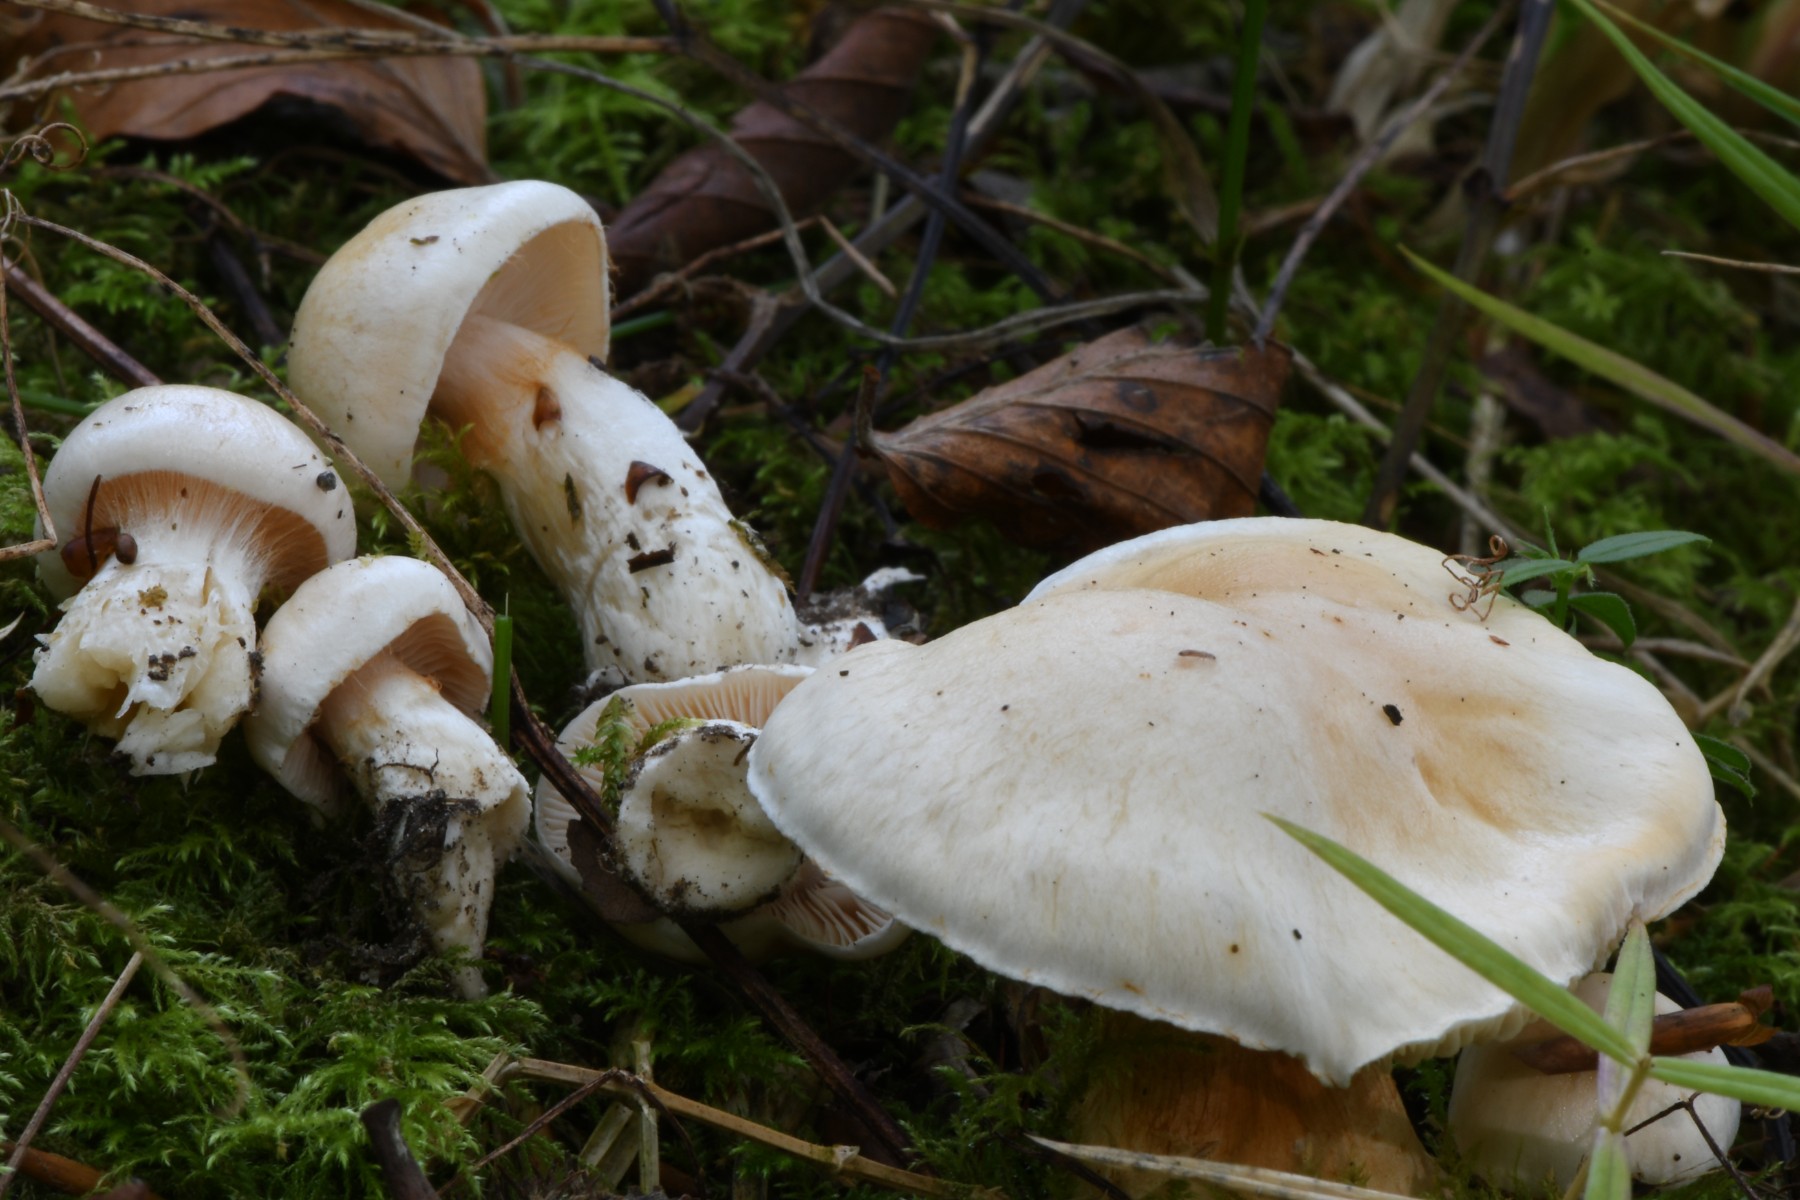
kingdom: Fungi
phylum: Basidiomycota
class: Agaricomycetes
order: Agaricales
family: Cortinariaceae
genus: Thaxterogaster
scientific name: Thaxterogaster barbatus
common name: elfenbens-slørhat
